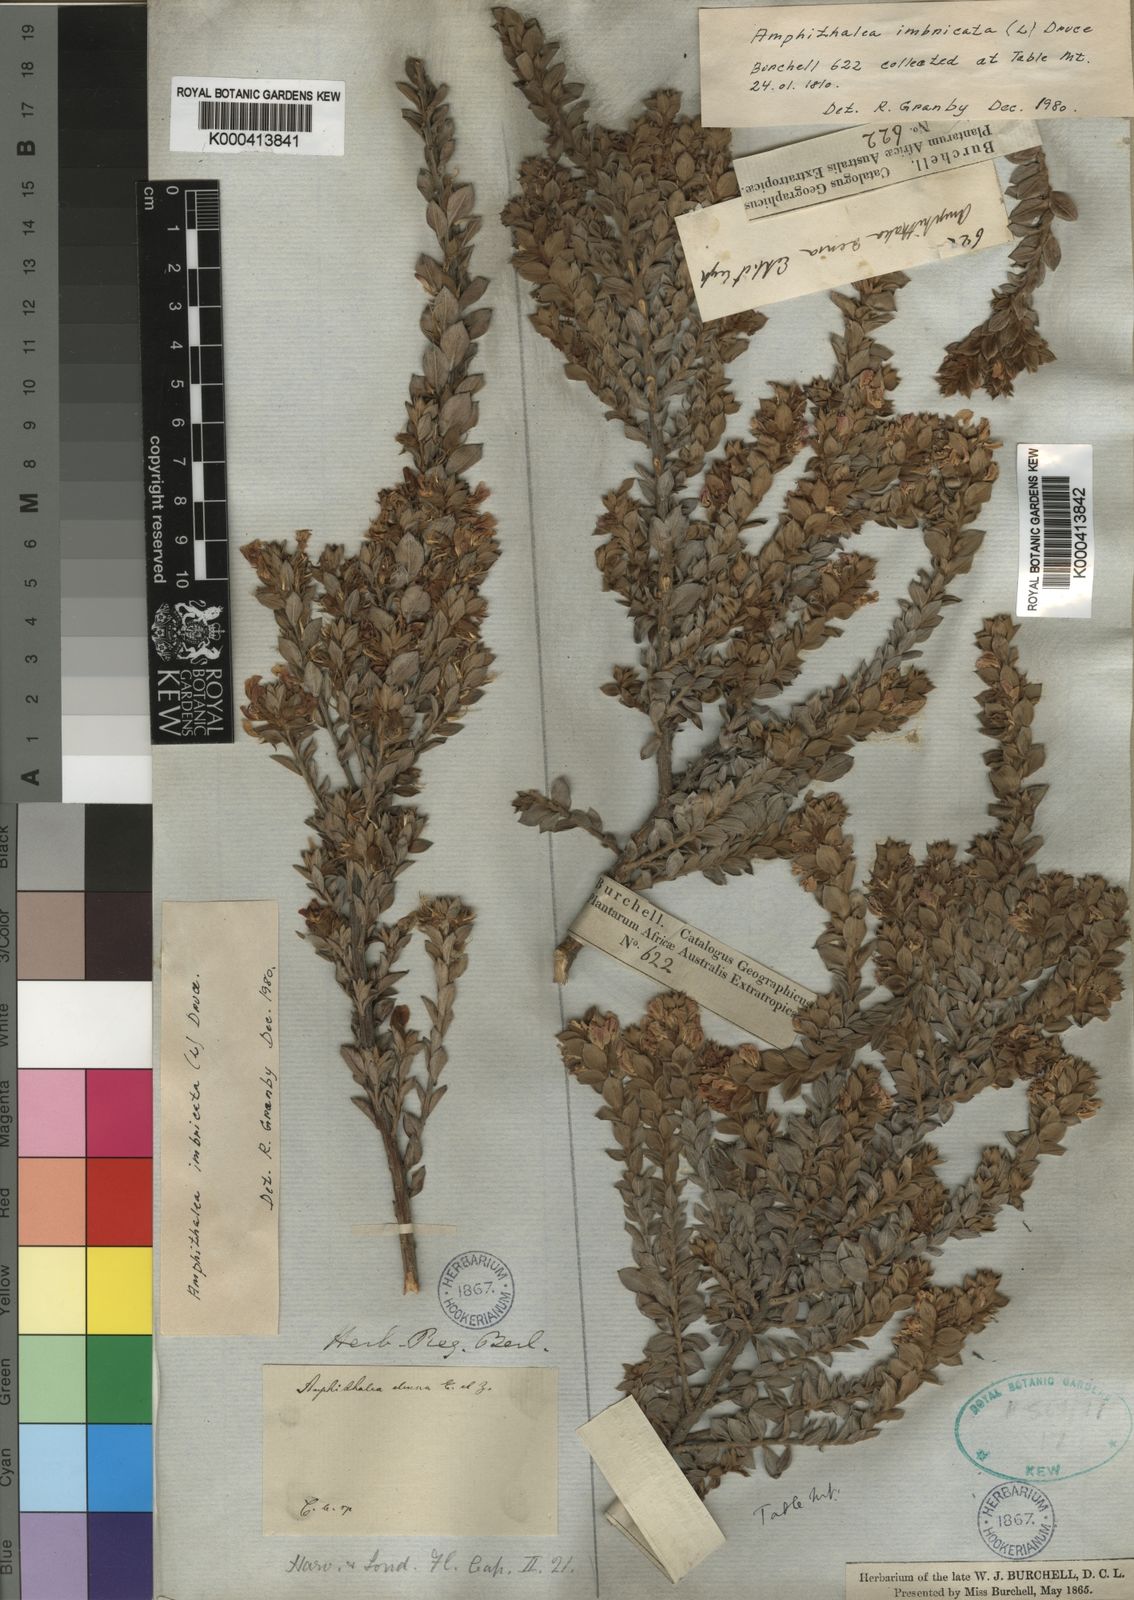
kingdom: Plantae
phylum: Tracheophyta
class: Magnoliopsida
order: Fabales
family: Fabaceae
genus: Amphithalea
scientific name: Amphithalea imbricata
